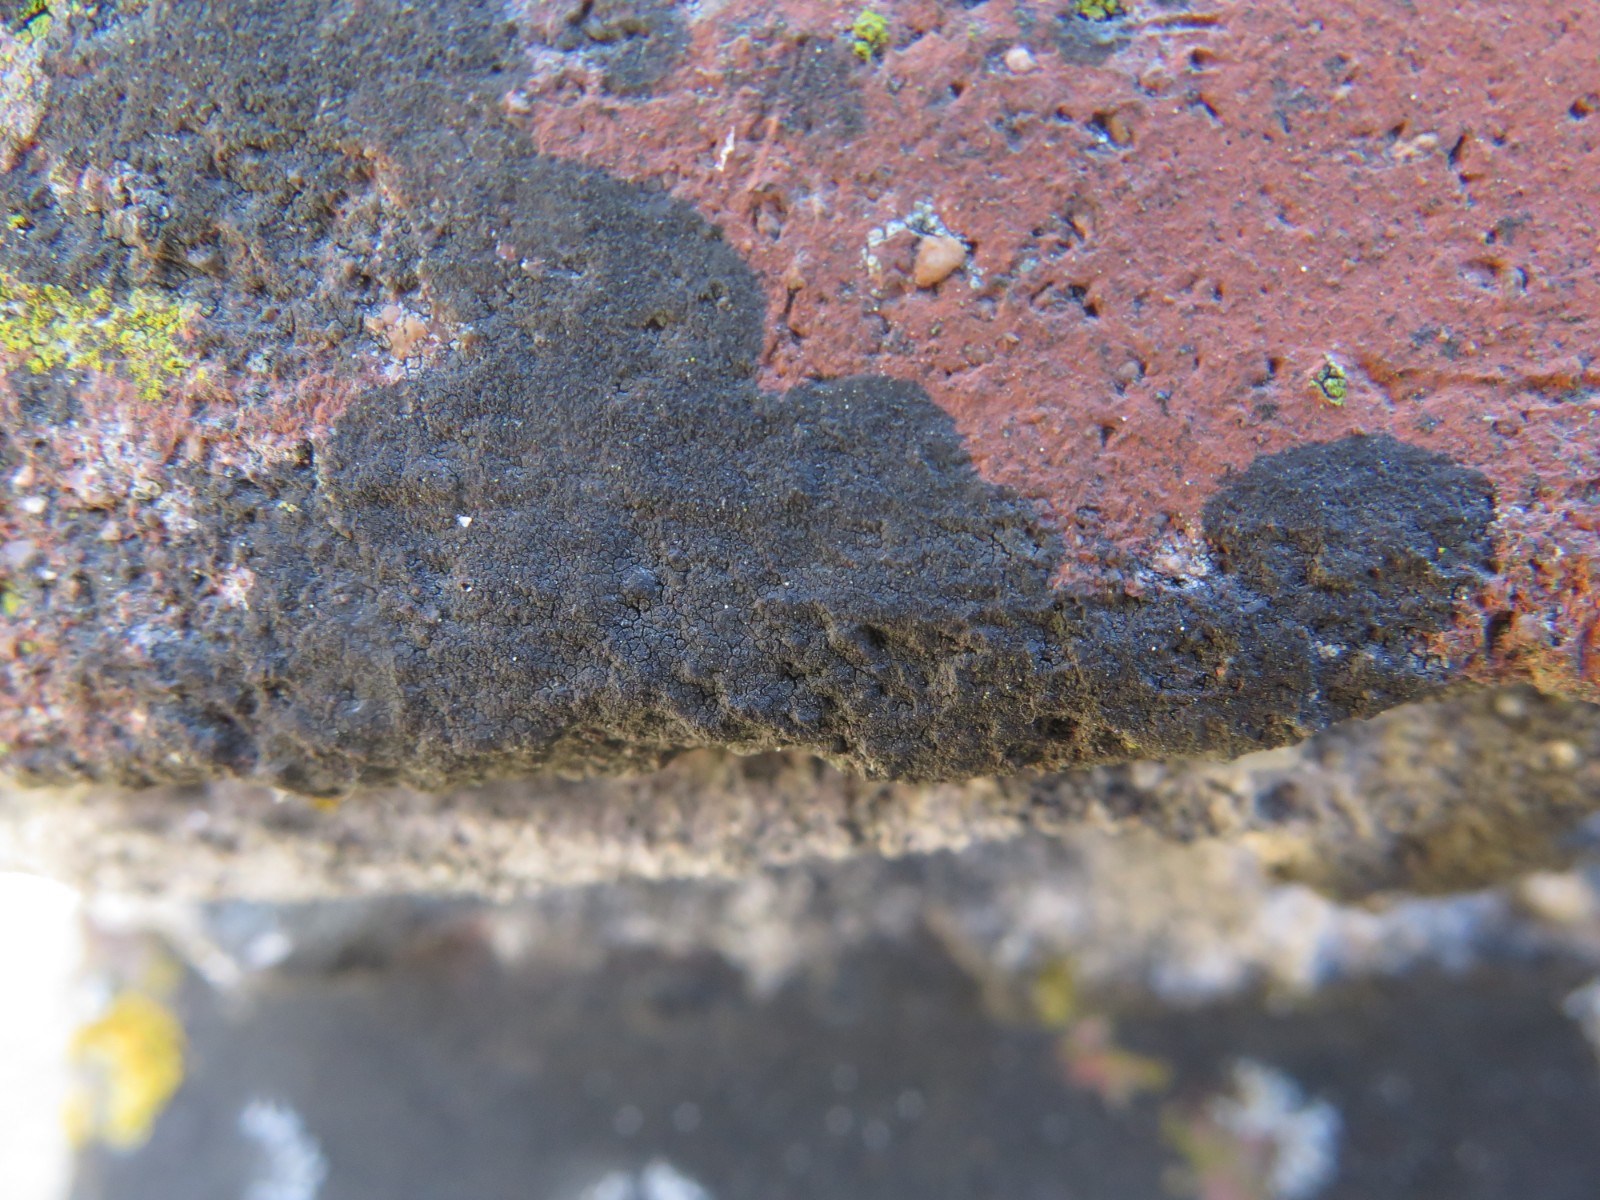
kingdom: Fungi
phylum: Ascomycota
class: Eurotiomycetes
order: Verrucariales
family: Verrucariaceae
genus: Verrucaria
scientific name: Verrucaria nigrescens
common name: sortbrun vortelav
